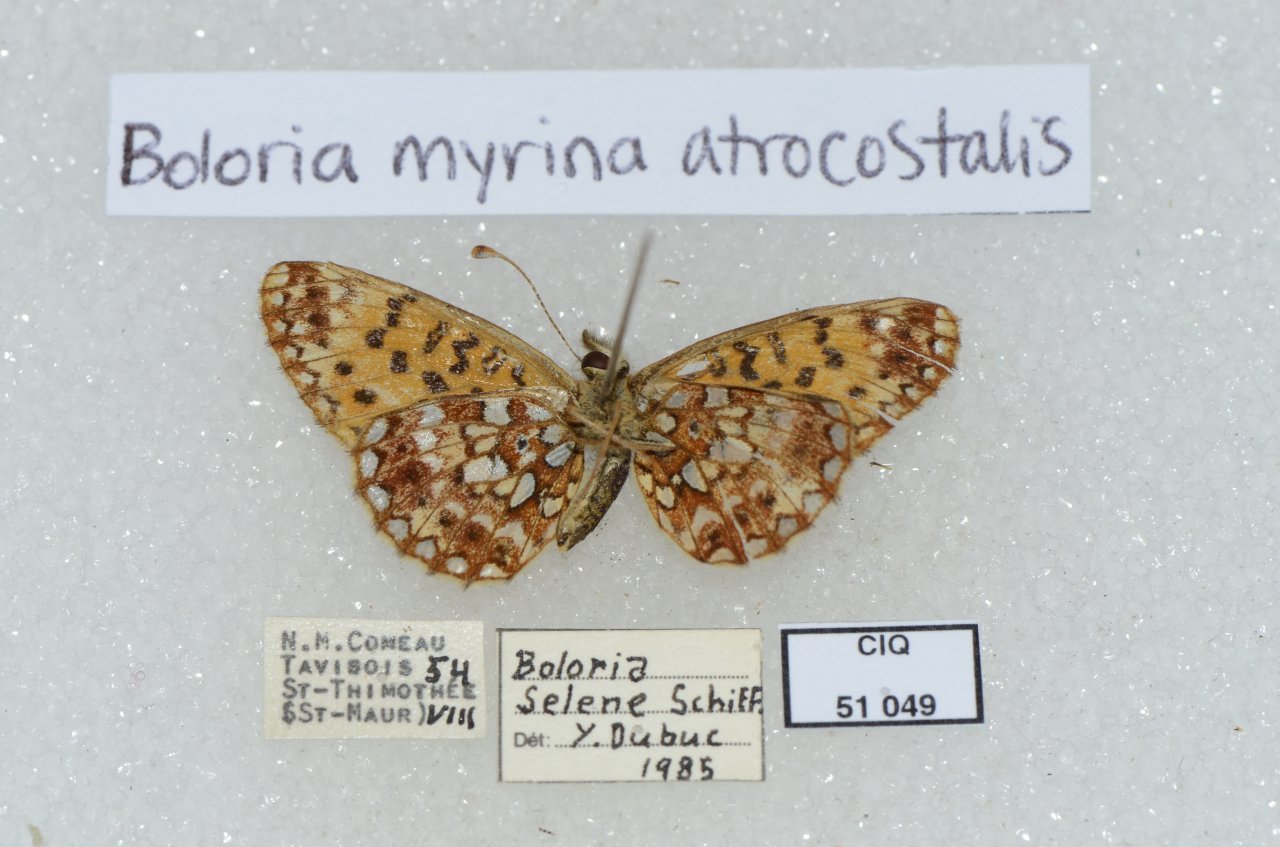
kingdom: Animalia
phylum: Arthropoda
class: Insecta
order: Lepidoptera
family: Nymphalidae
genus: Boloria
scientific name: Boloria selene
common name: Silver-bordered Fritillary
